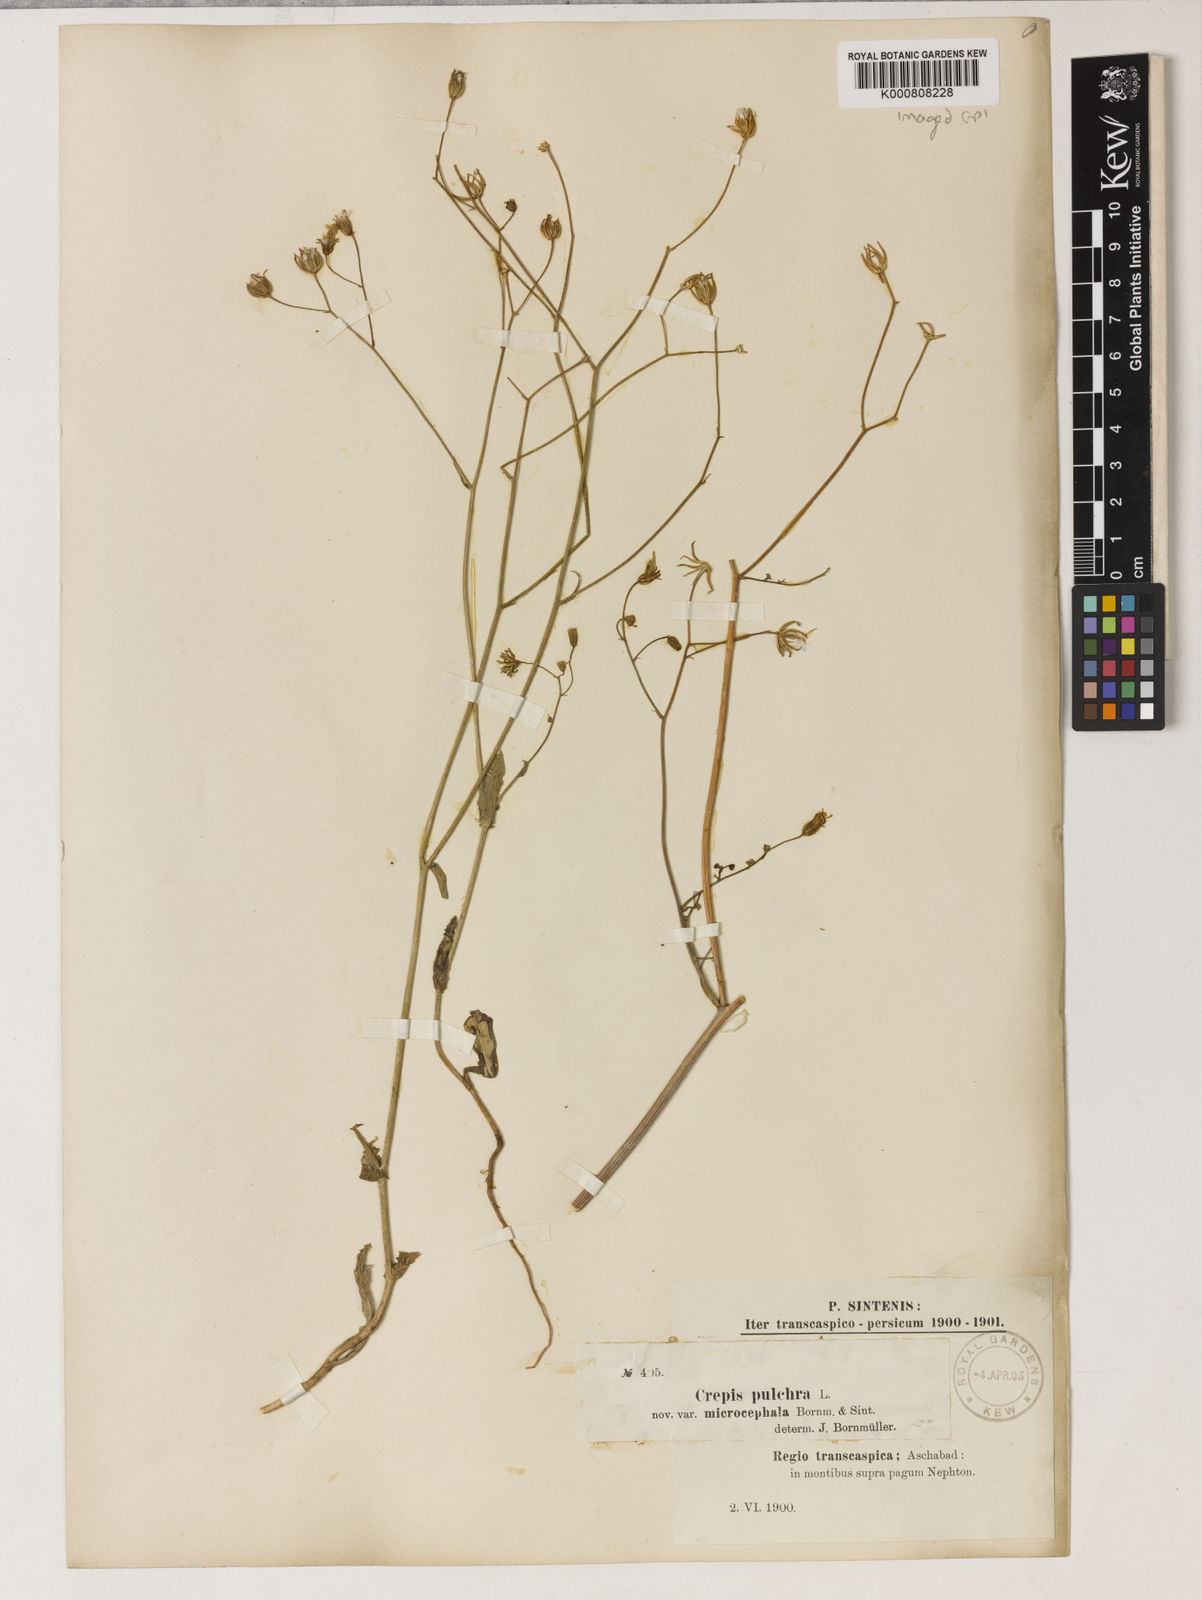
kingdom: Plantae
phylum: Tracheophyta
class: Magnoliopsida
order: Asterales
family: Asteraceae
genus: Crepis
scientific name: Crepis pulchra
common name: Hawk's-beard
